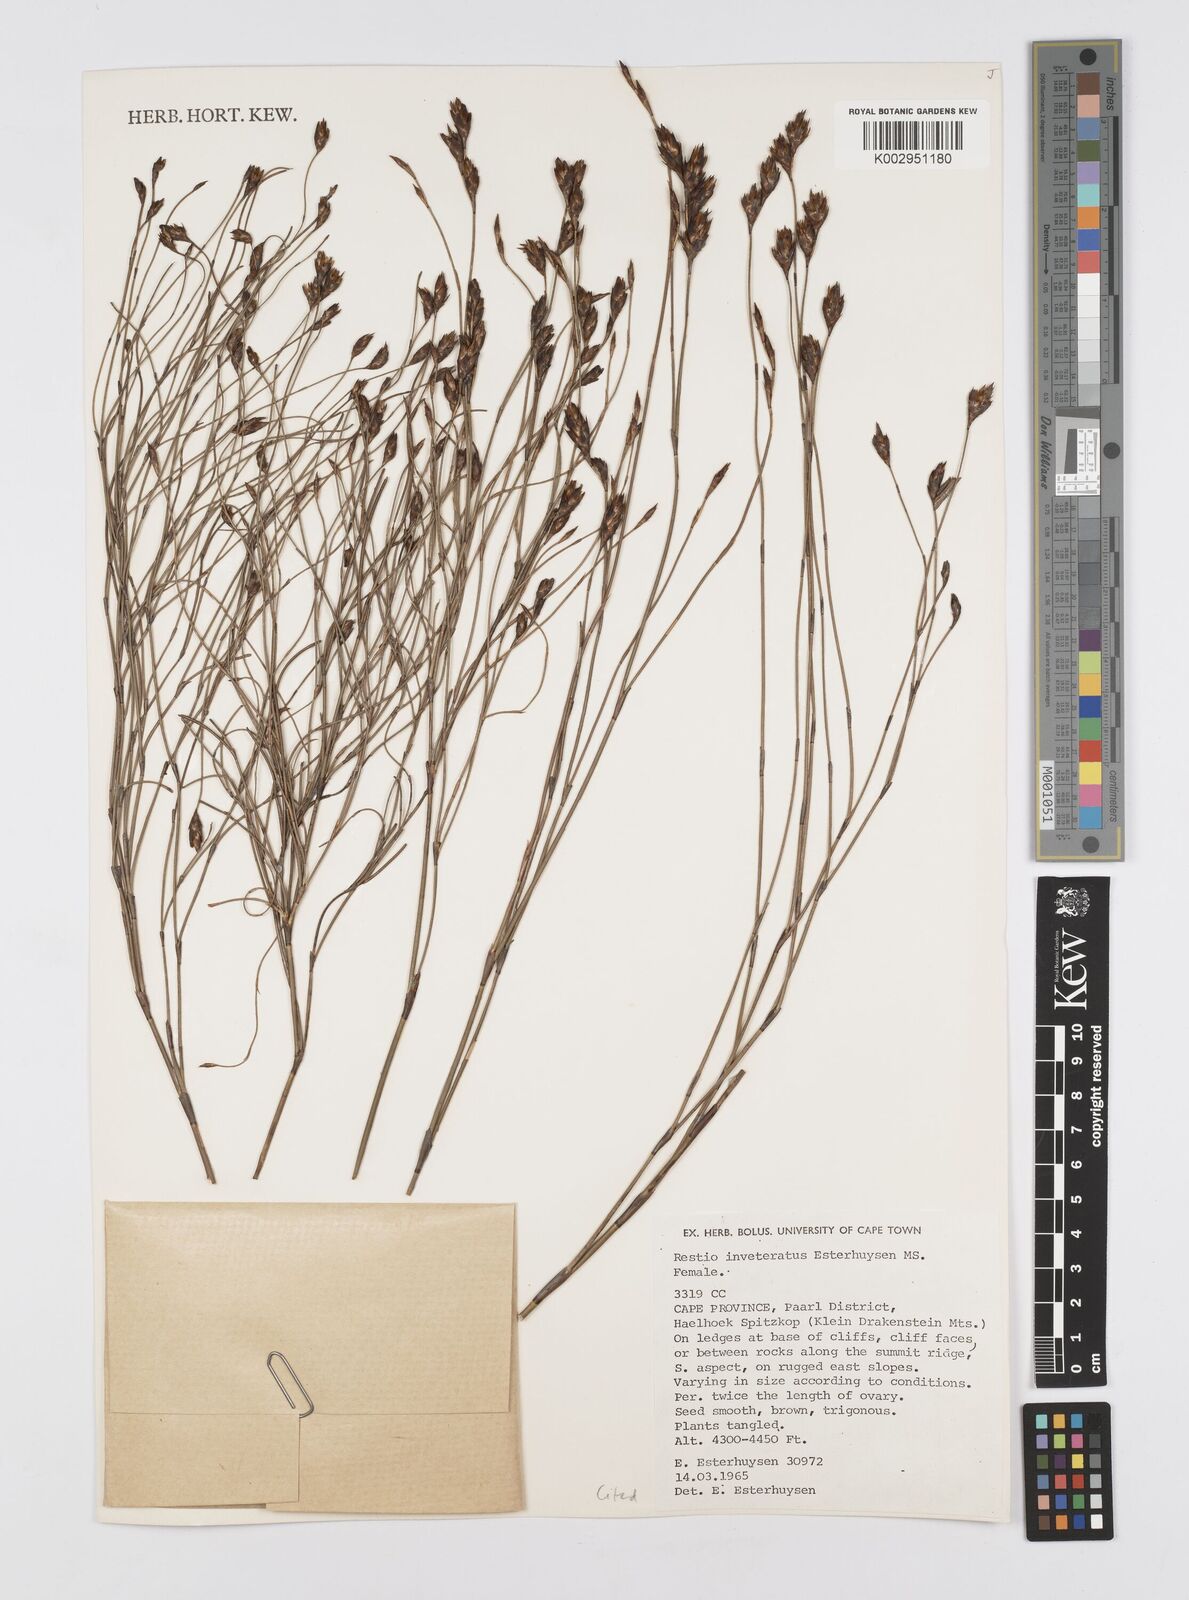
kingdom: Plantae
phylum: Tracheophyta
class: Liliopsida
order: Poales
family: Restionaceae
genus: Restio
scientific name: Restio inveteratus
